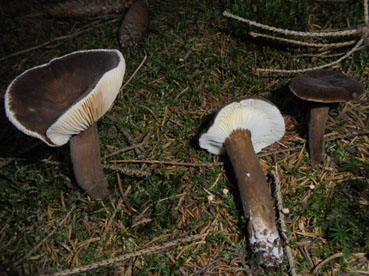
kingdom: Fungi
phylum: Basidiomycota
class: Agaricomycetes
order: Russulales
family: Russulaceae
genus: Lactarius
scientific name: Lactarius lignyotus
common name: fløjls-mælkehat
